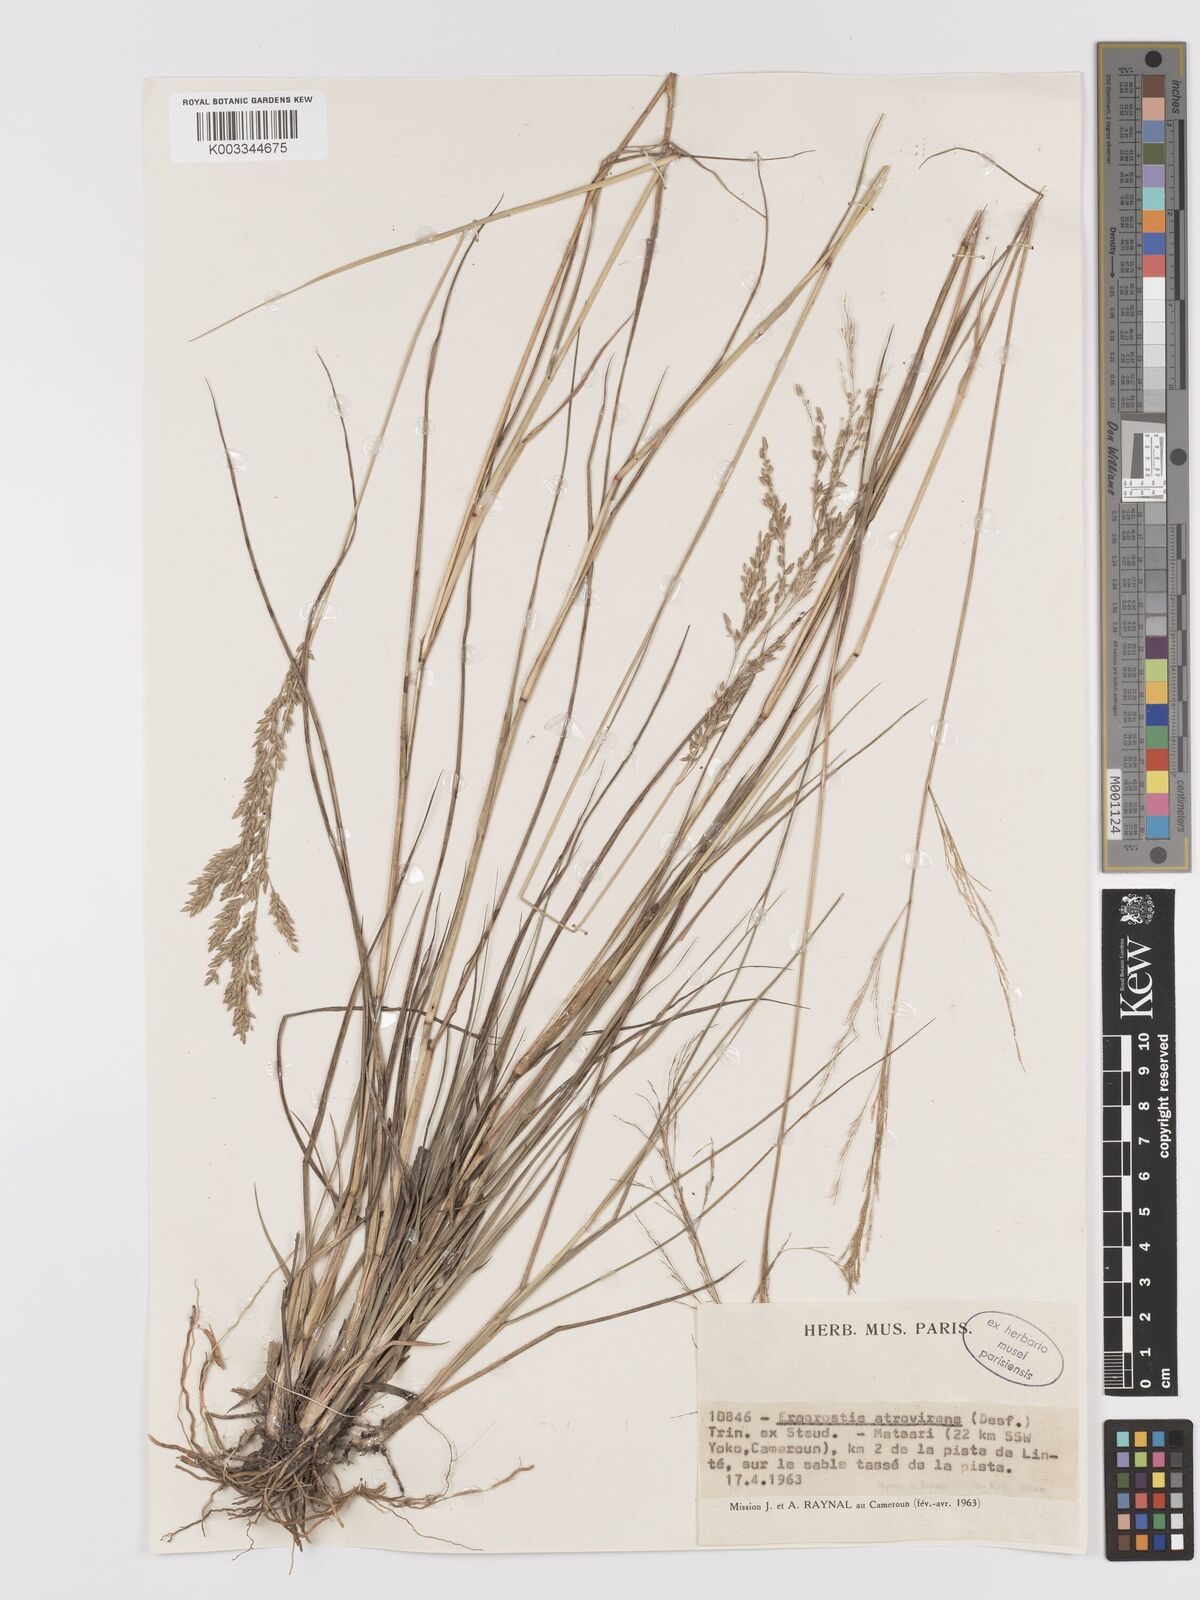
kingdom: Plantae
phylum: Tracheophyta
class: Liliopsida
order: Poales
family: Poaceae
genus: Eragrostis
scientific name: Eragrostis atrovirens
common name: Thalia lovegrass
